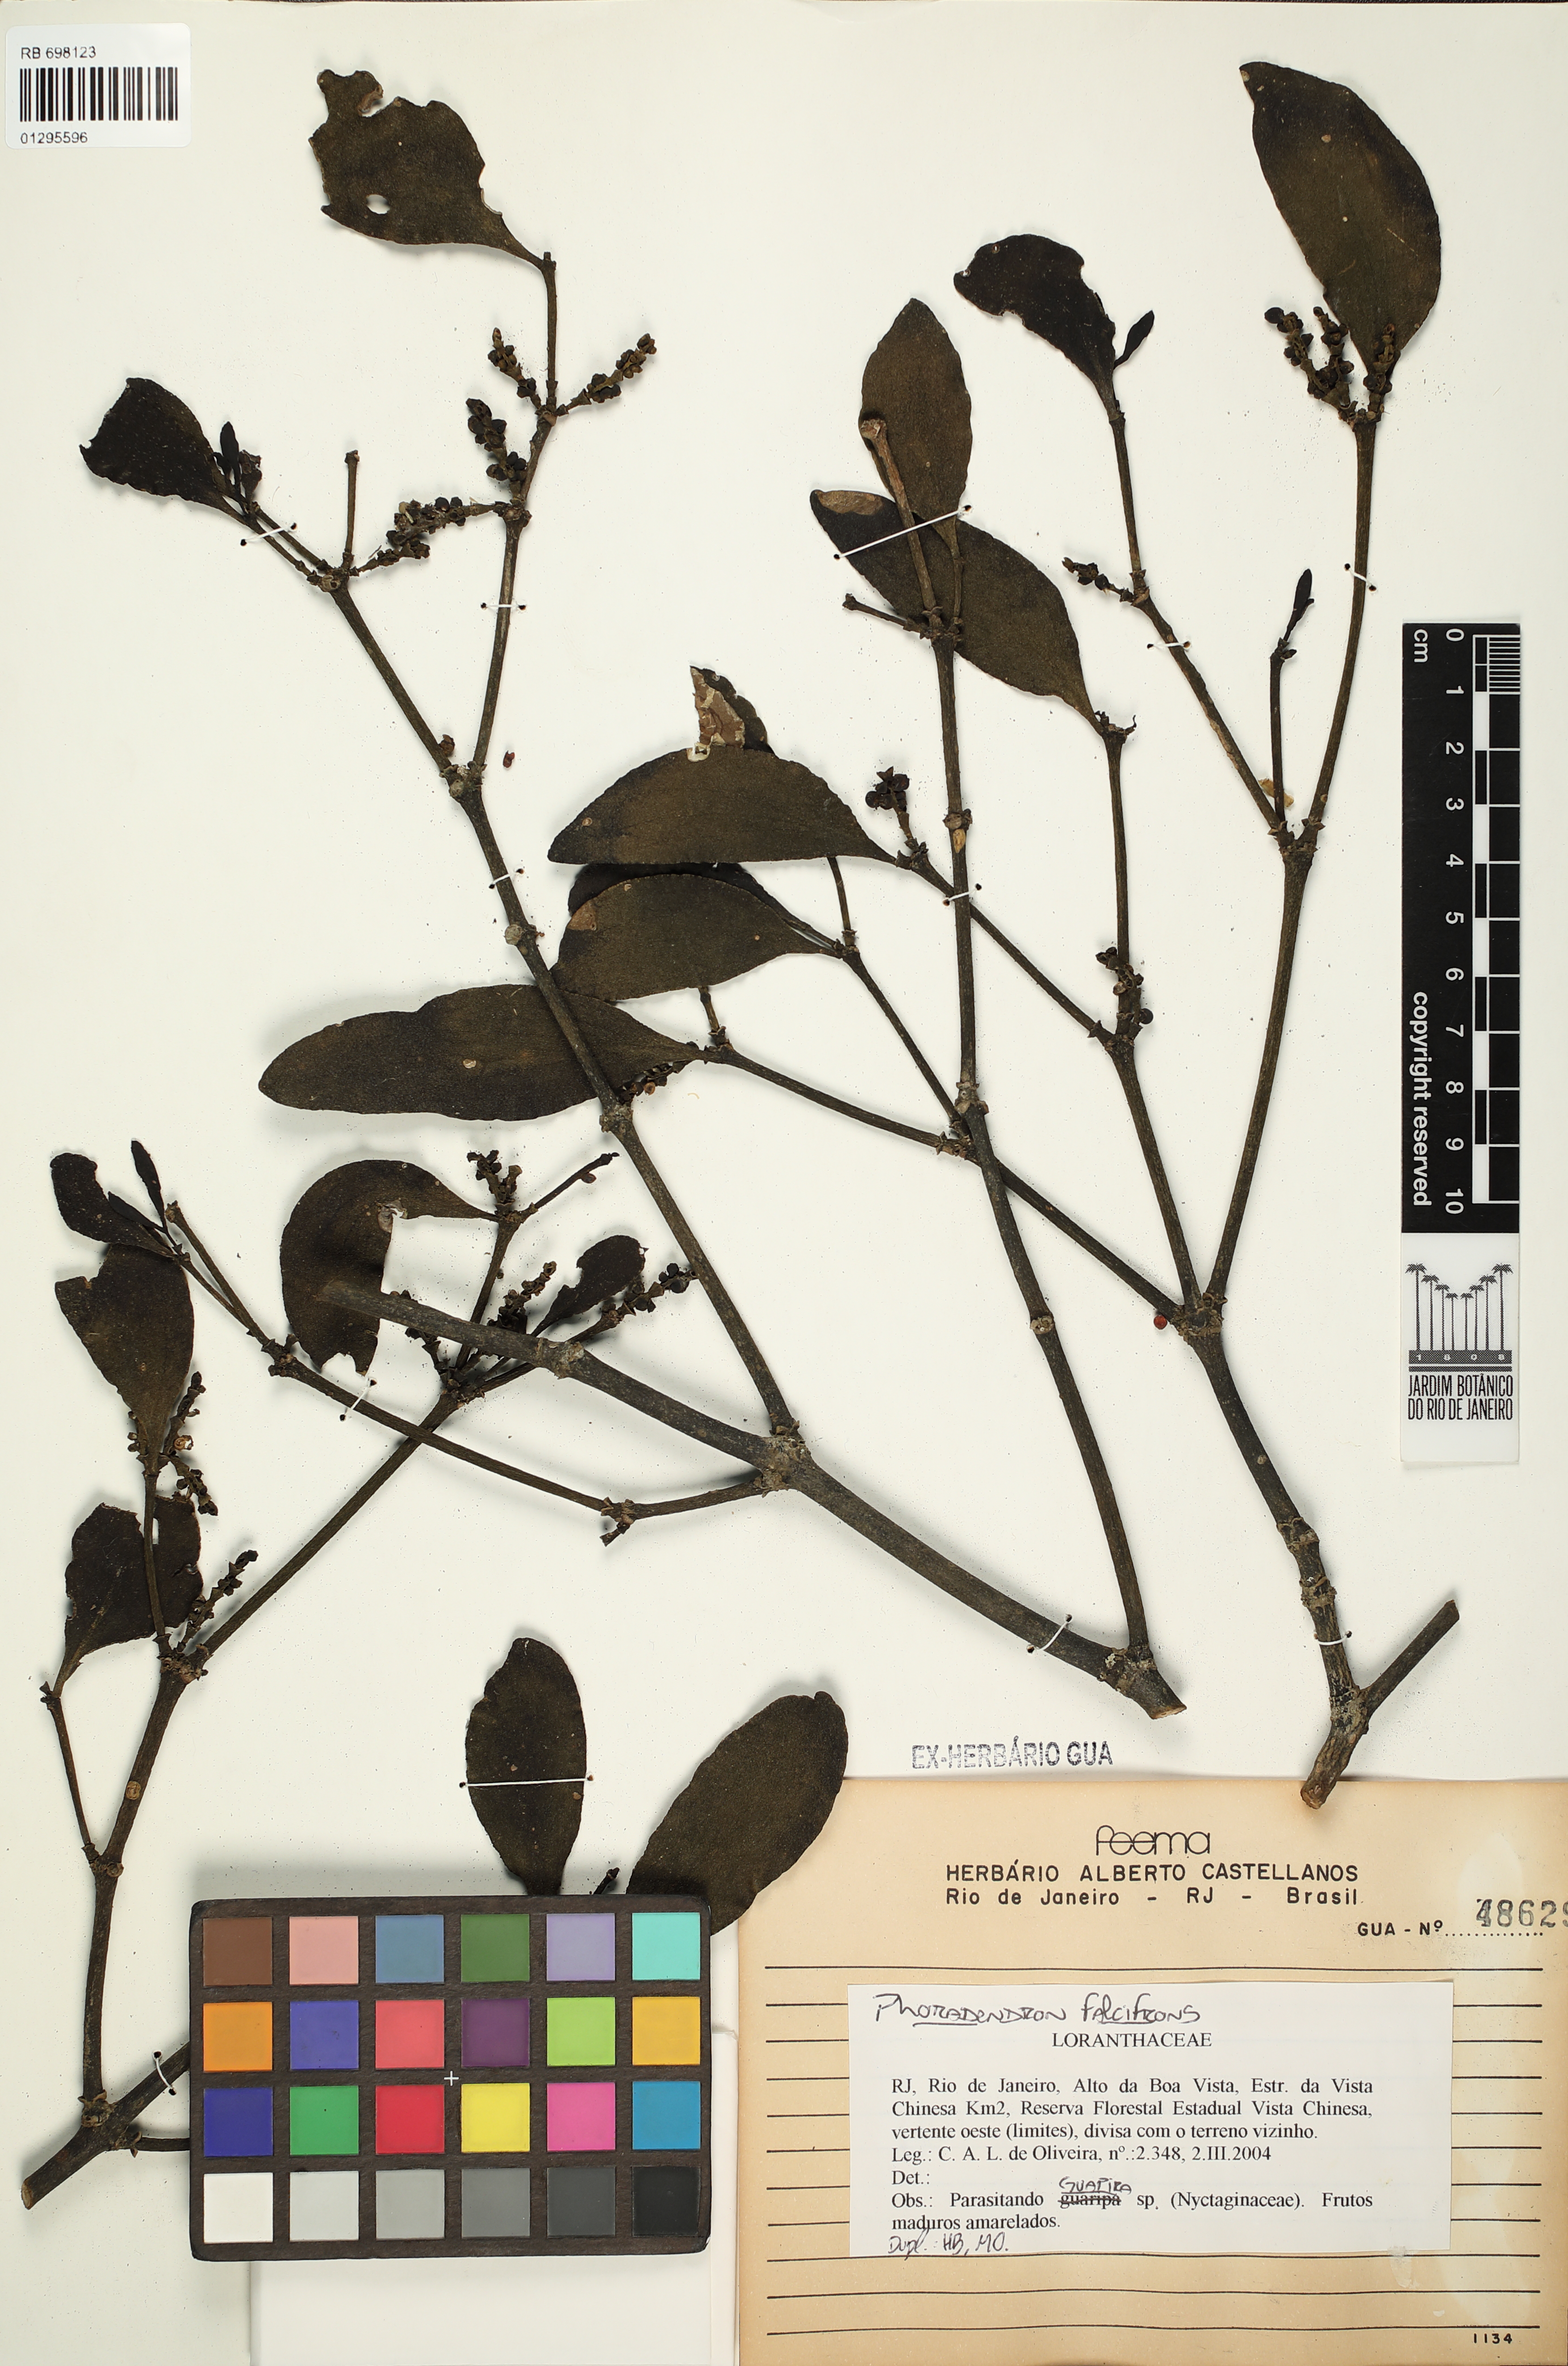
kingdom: Plantae
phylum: Tracheophyta
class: Magnoliopsida
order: Santalales
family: Viscaceae
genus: Phoradendron
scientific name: Phoradendron falcifrons
